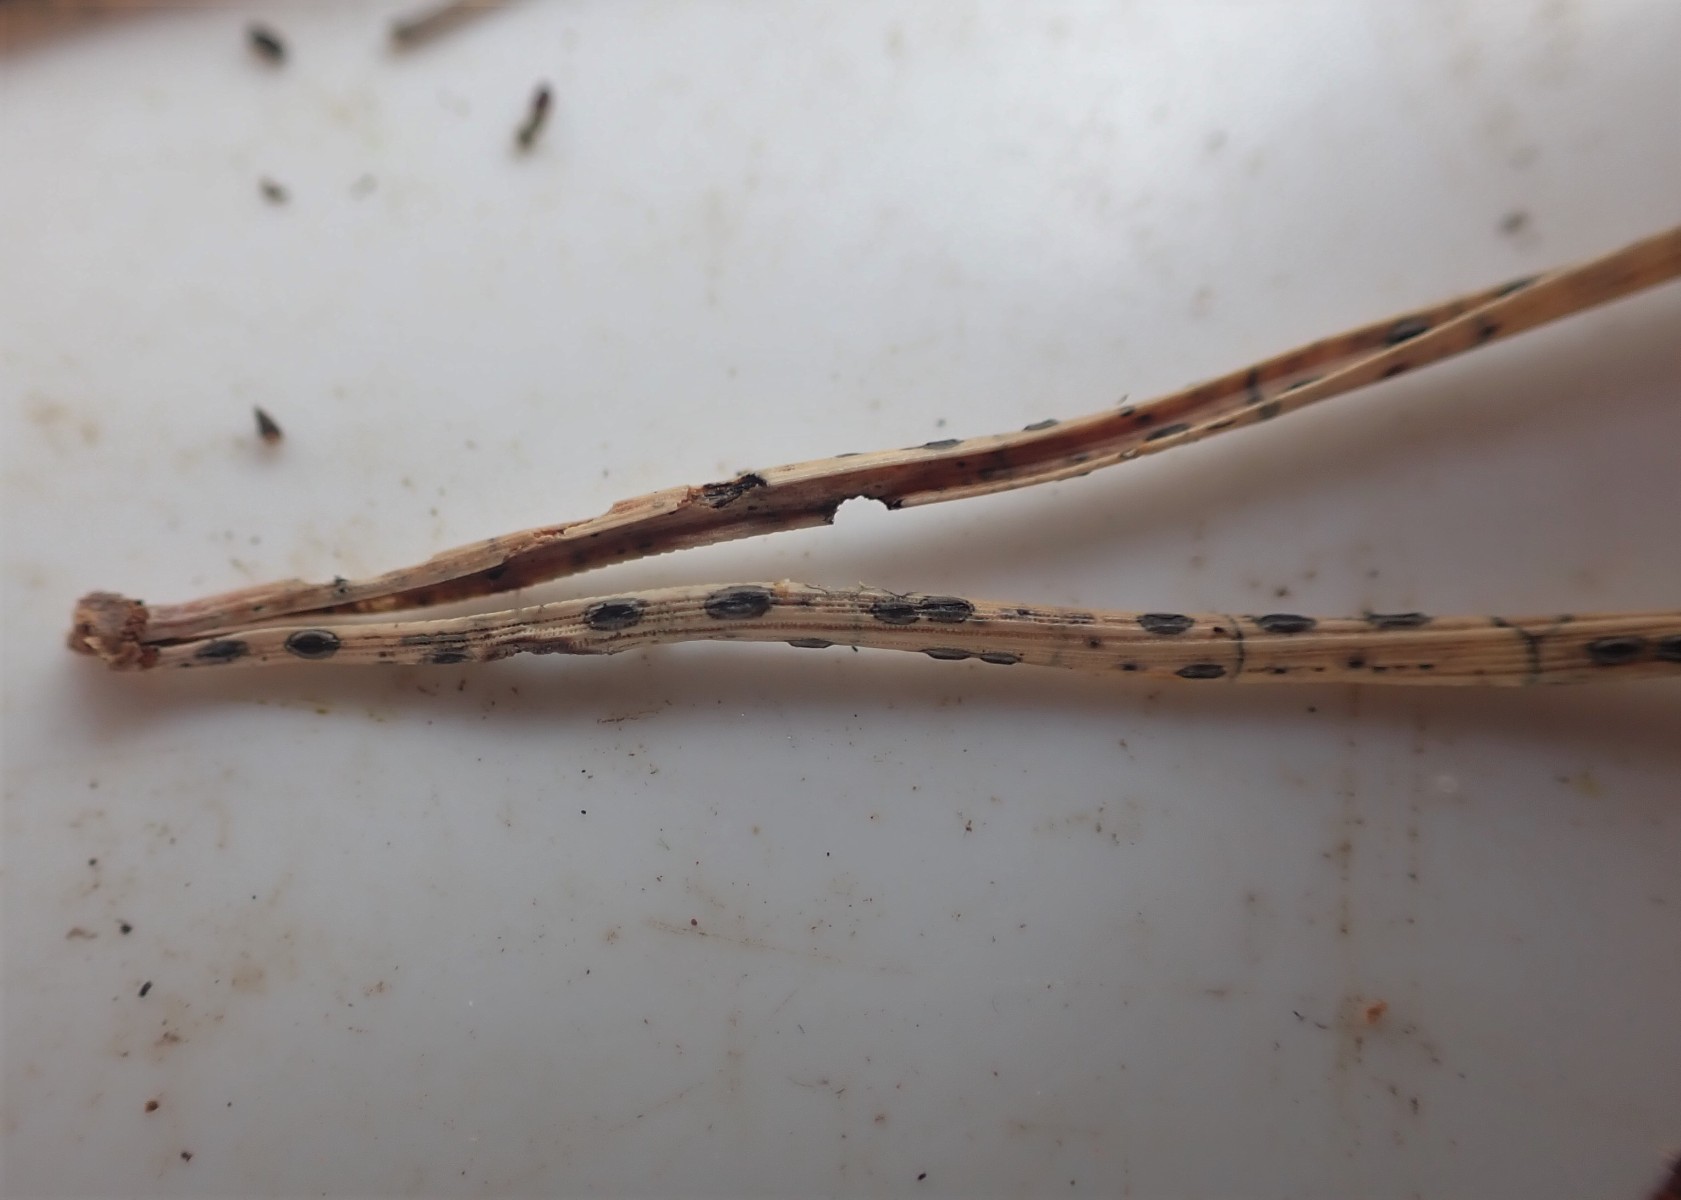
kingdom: Fungi
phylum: Ascomycota
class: Leotiomycetes
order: Rhytismatales
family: Rhytismataceae
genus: Lophodermium
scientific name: Lophodermium pinastri
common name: fyrre-fureplet
